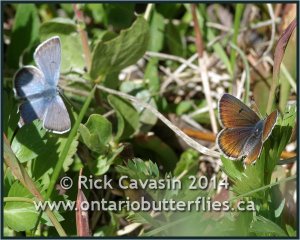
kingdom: Animalia
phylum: Arthropoda
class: Insecta
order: Lepidoptera
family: Lycaenidae
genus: Plebejus
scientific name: Plebejus saepiolus
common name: Greenish Blue
